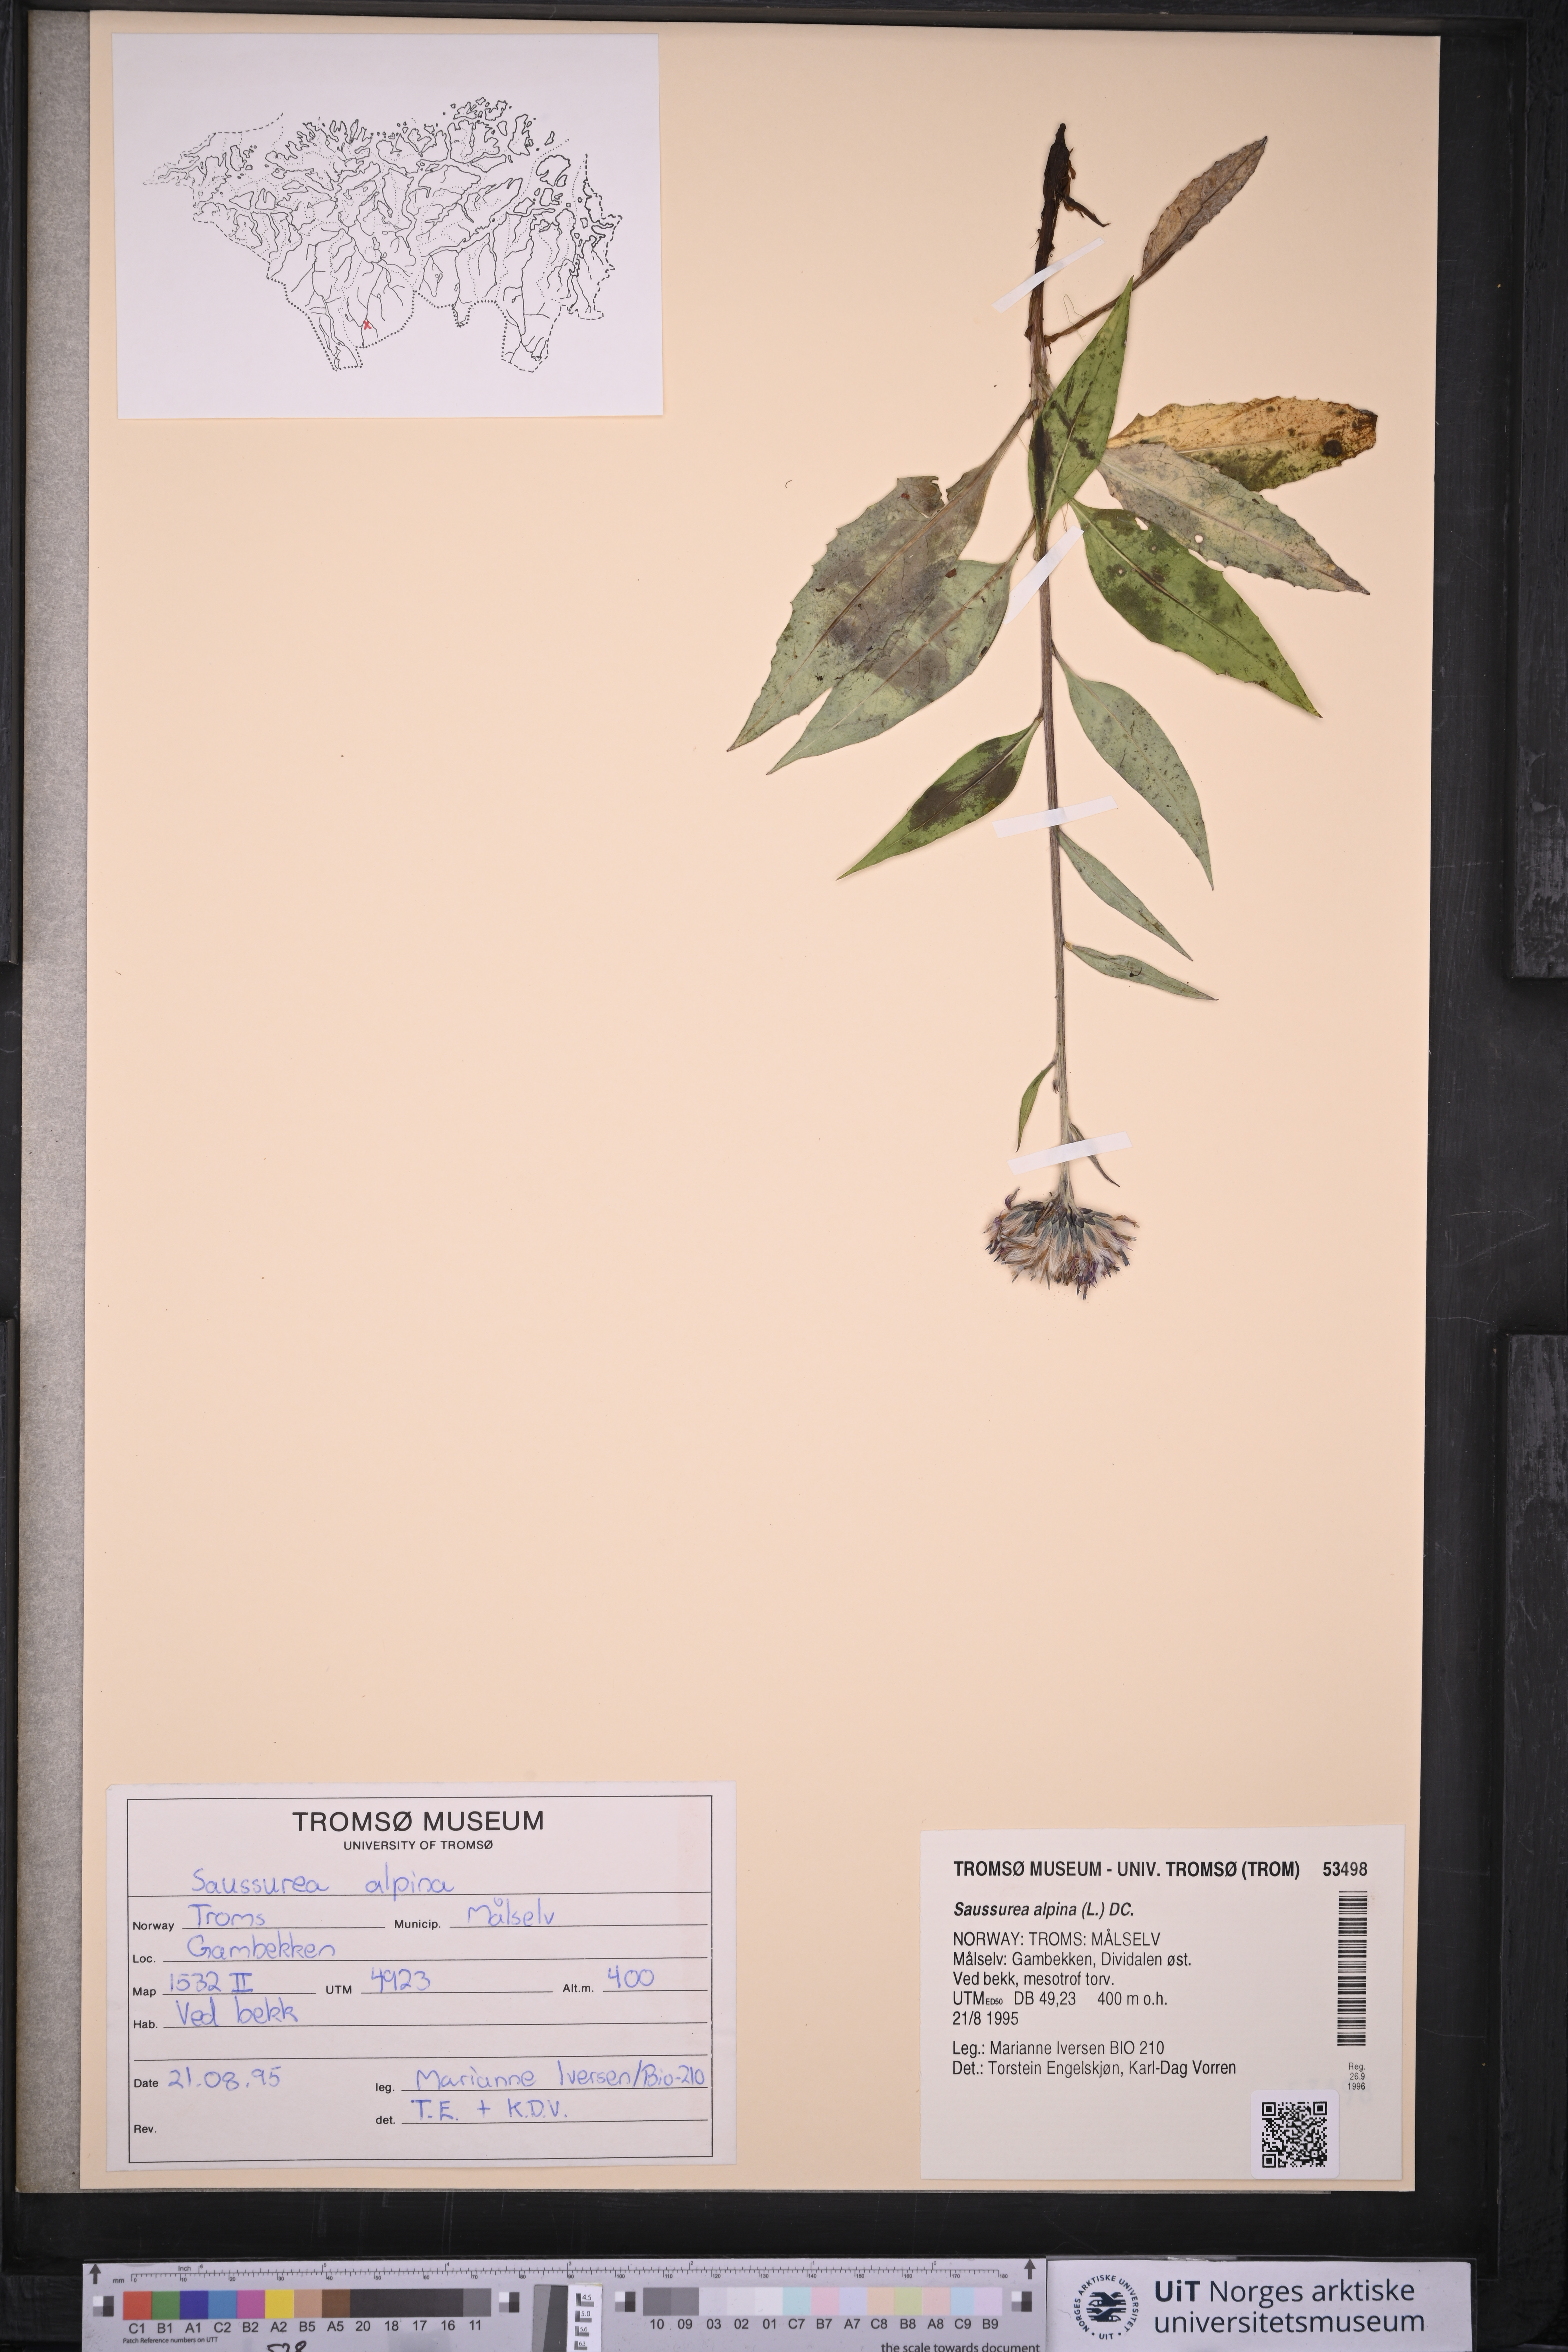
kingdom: Plantae
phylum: Tracheophyta
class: Magnoliopsida
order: Asterales
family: Asteraceae
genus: Saussurea
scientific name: Saussurea alpina
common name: Alpine saw-wort
